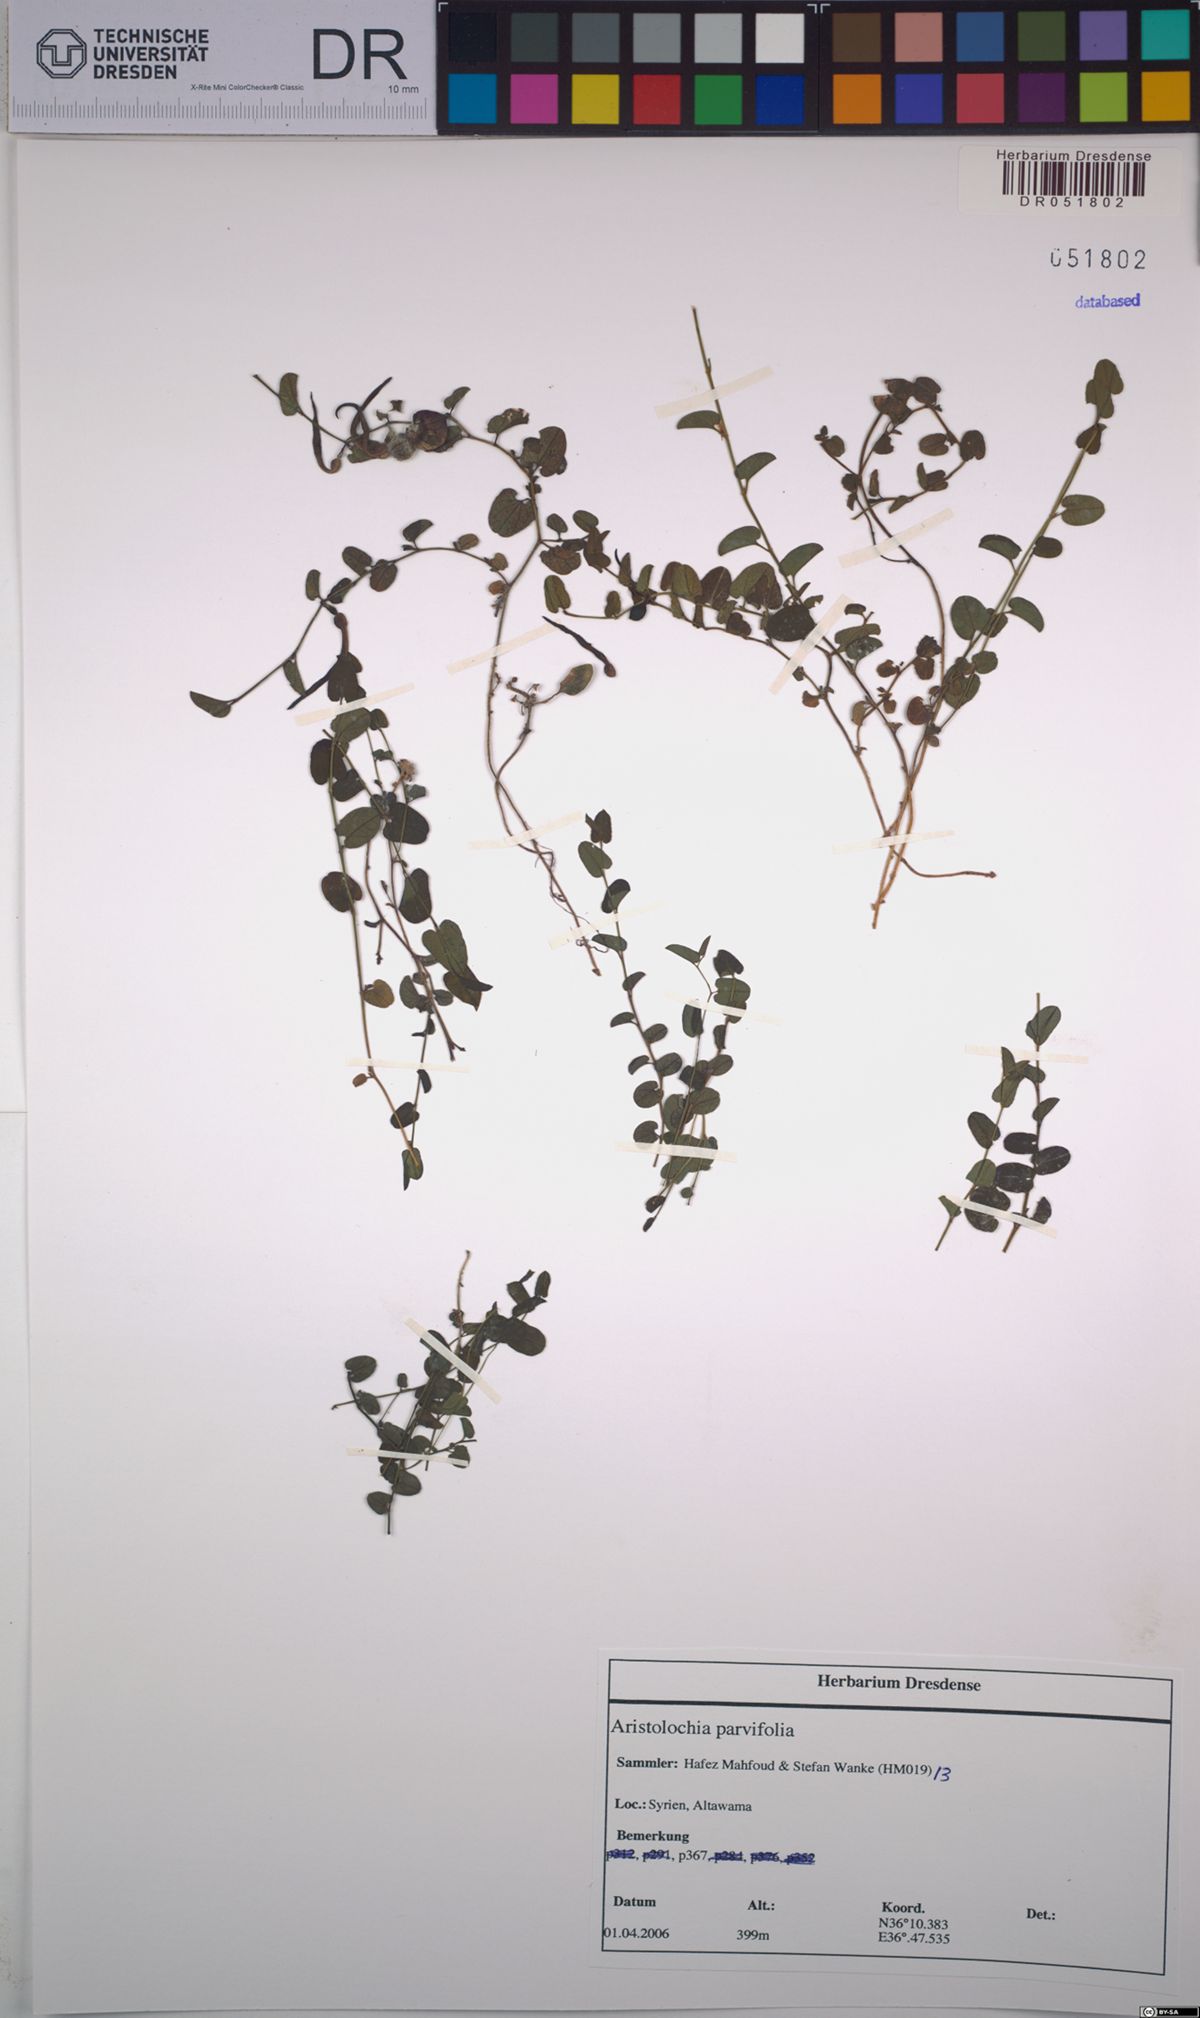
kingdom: Plantae
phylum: Tracheophyta
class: Magnoliopsida
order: Piperales
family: Aristolochiaceae
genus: Aristolochia
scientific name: Aristolochia parvifolia
